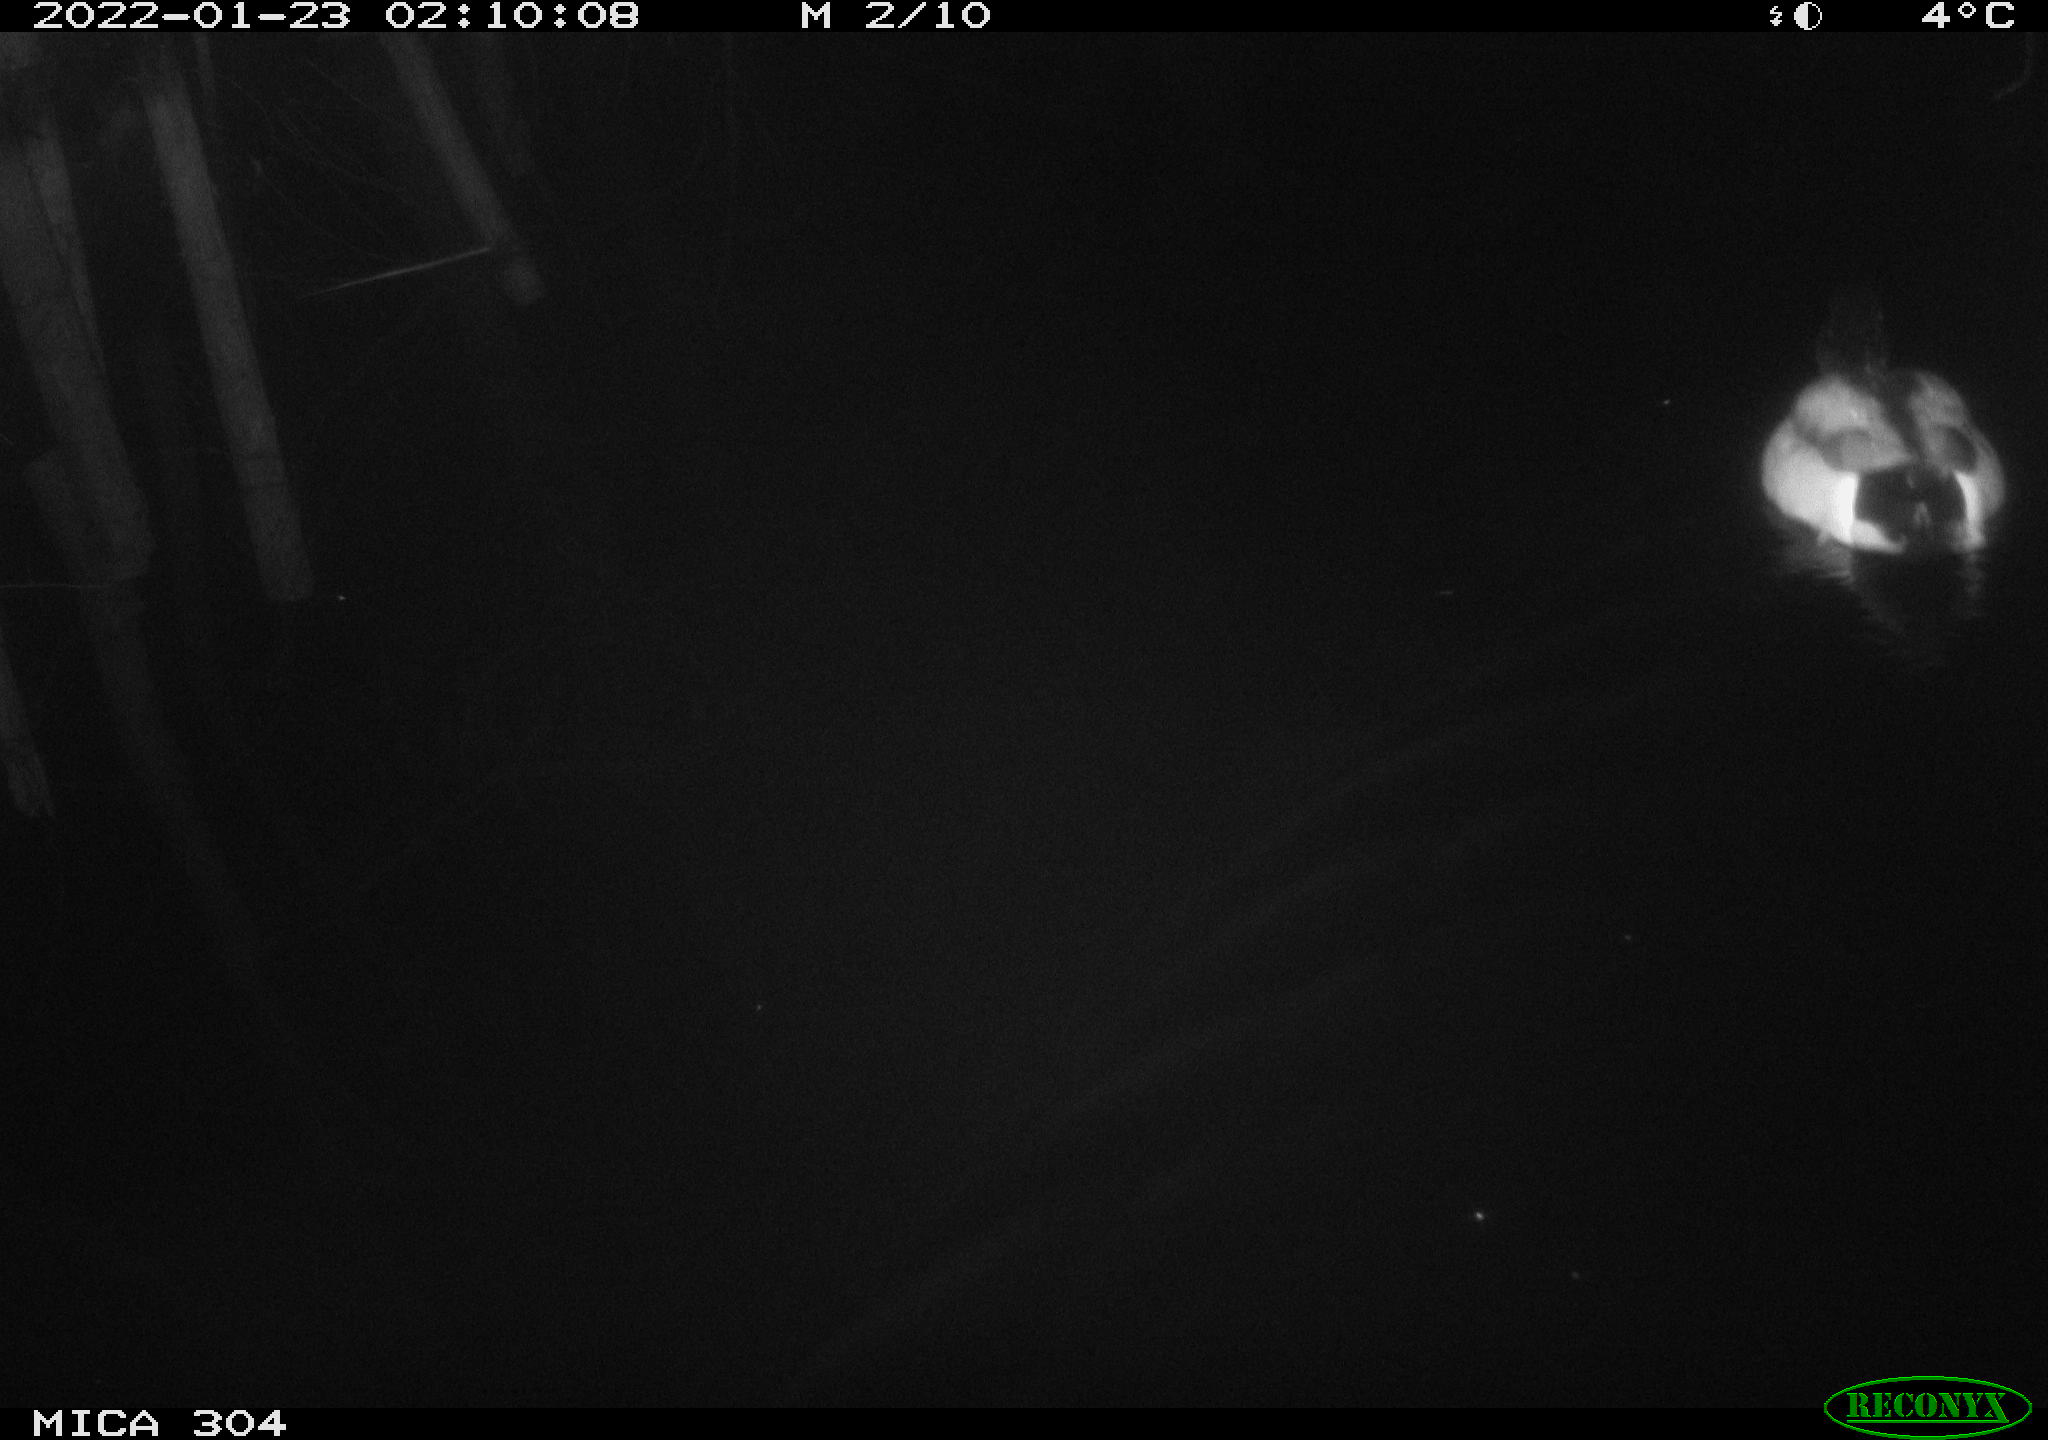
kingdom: Animalia
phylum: Chordata
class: Aves
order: Anseriformes
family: Anatidae
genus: Anas
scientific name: Anas
